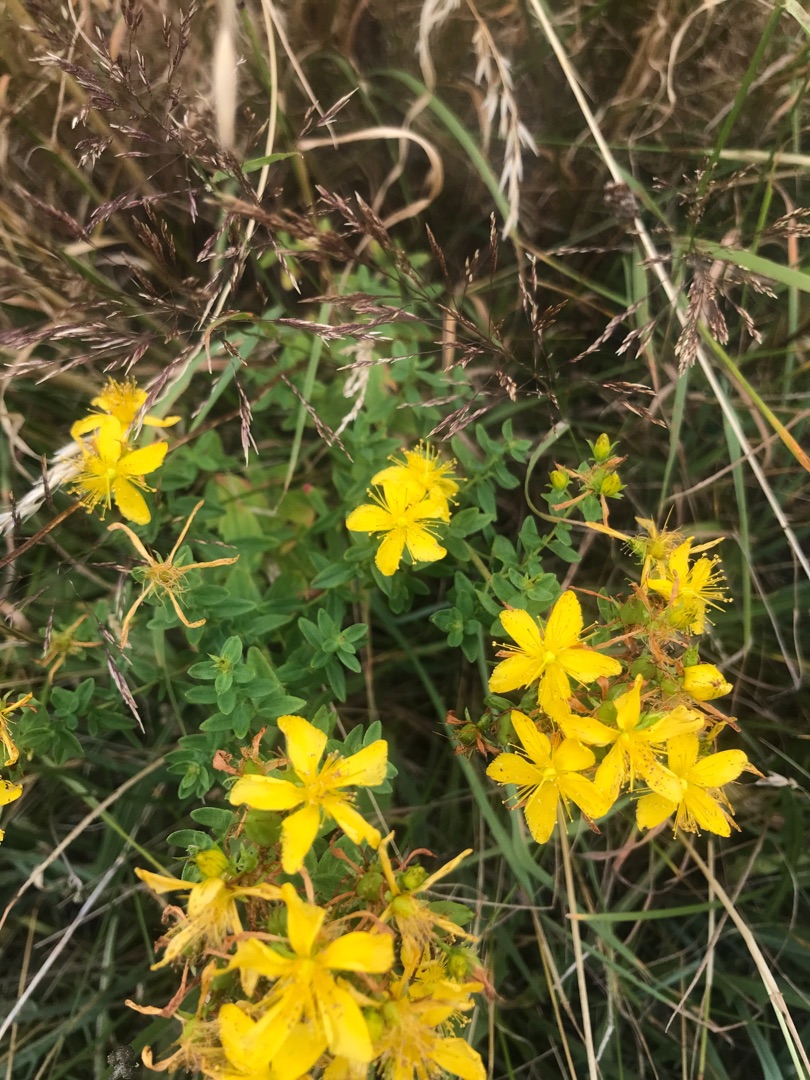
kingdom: Plantae
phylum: Tracheophyta
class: Magnoliopsida
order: Malpighiales
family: Hypericaceae
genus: Hypericum
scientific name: Hypericum perforatum
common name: Prikbladet perikon
